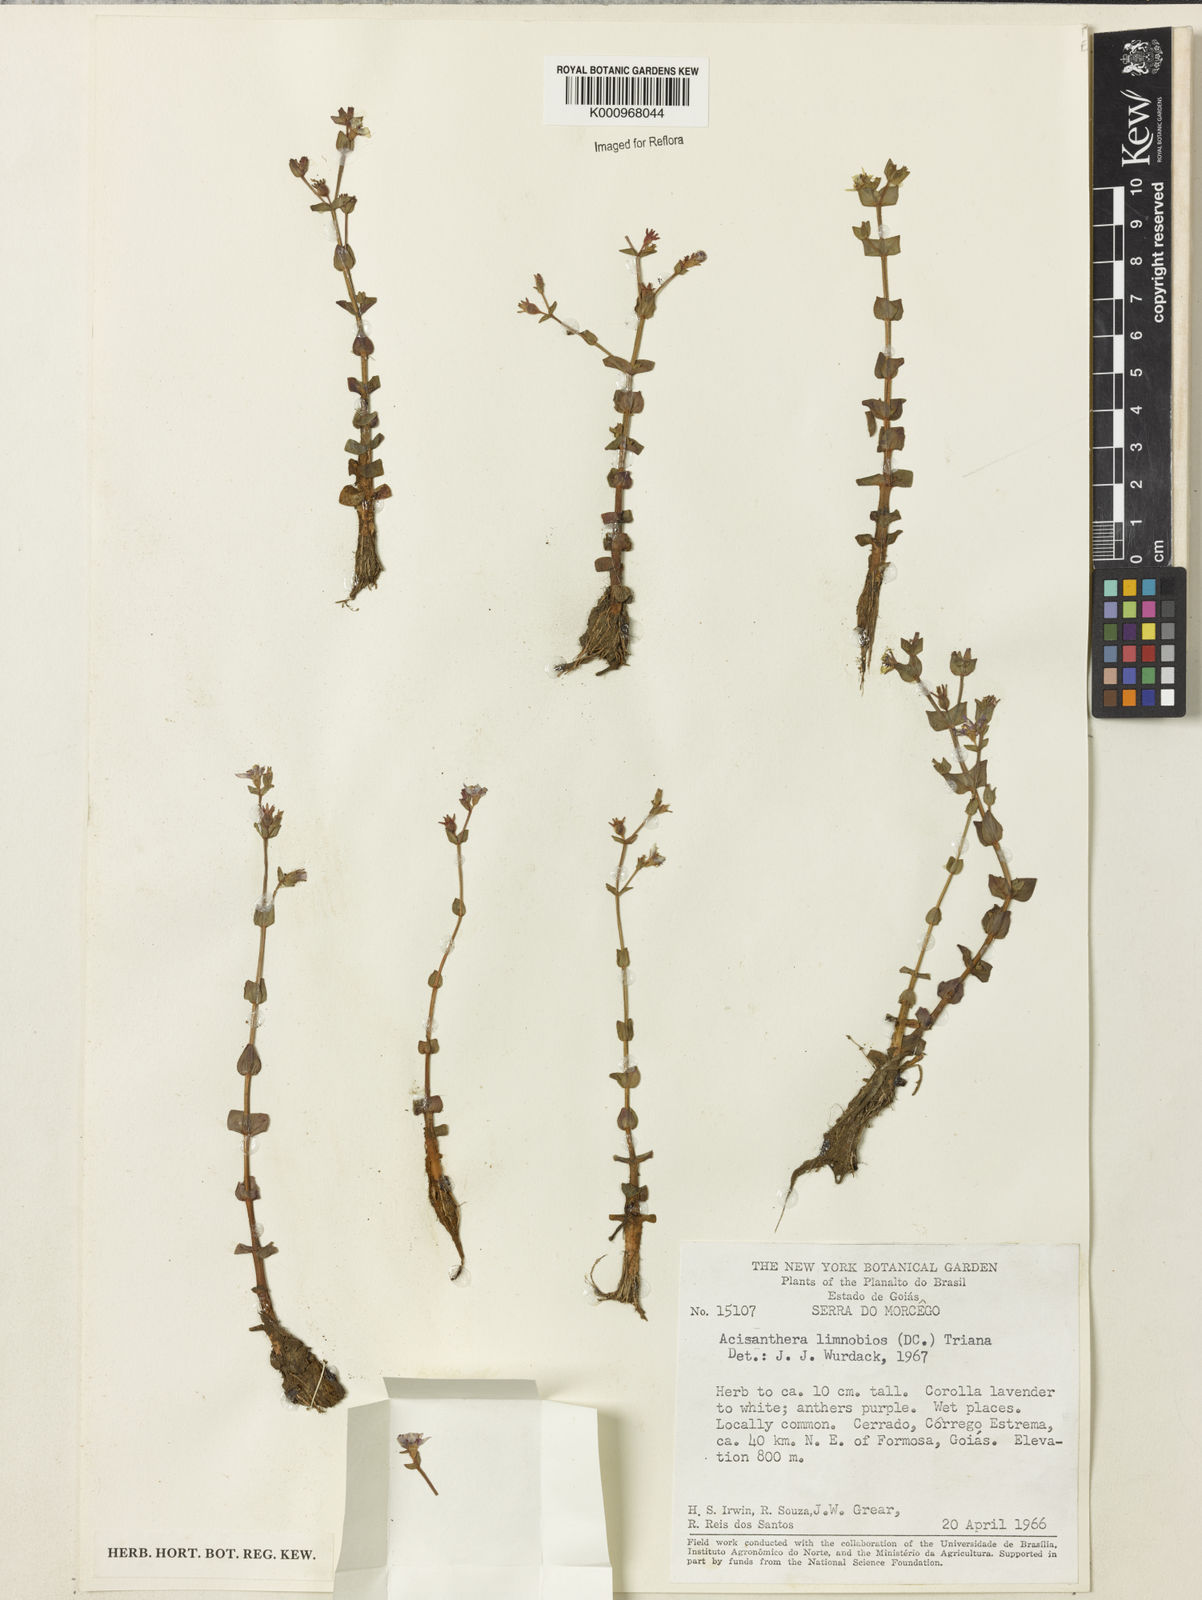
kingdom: Plantae
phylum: Tracheophyta
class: Magnoliopsida
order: Myrtales
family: Melastomataceae
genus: Acisanthera
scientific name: Acisanthera
